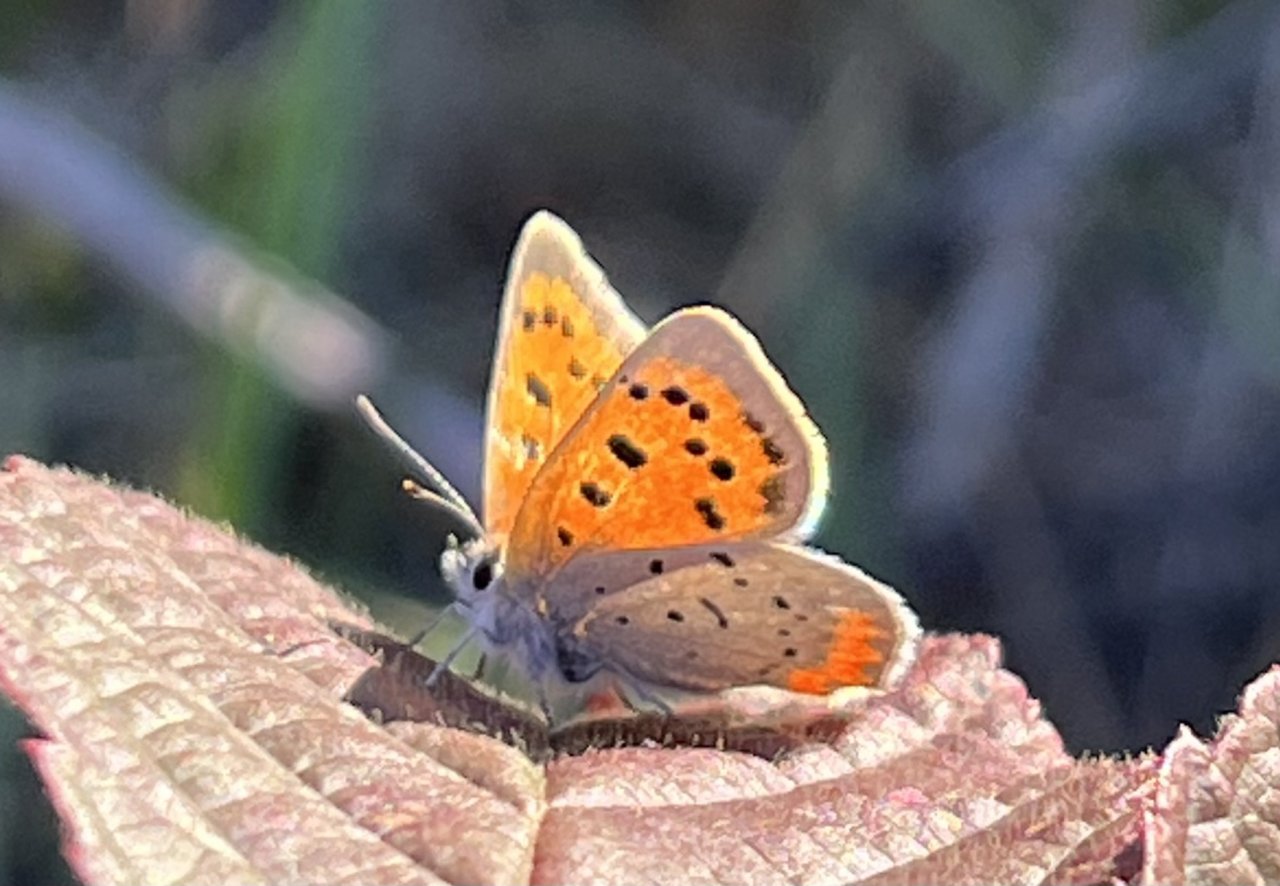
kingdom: Animalia
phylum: Arthropoda
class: Insecta
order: Lepidoptera
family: Lycaenidae
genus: Lycaena
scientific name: Lycaena phlaeas
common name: American Copper
